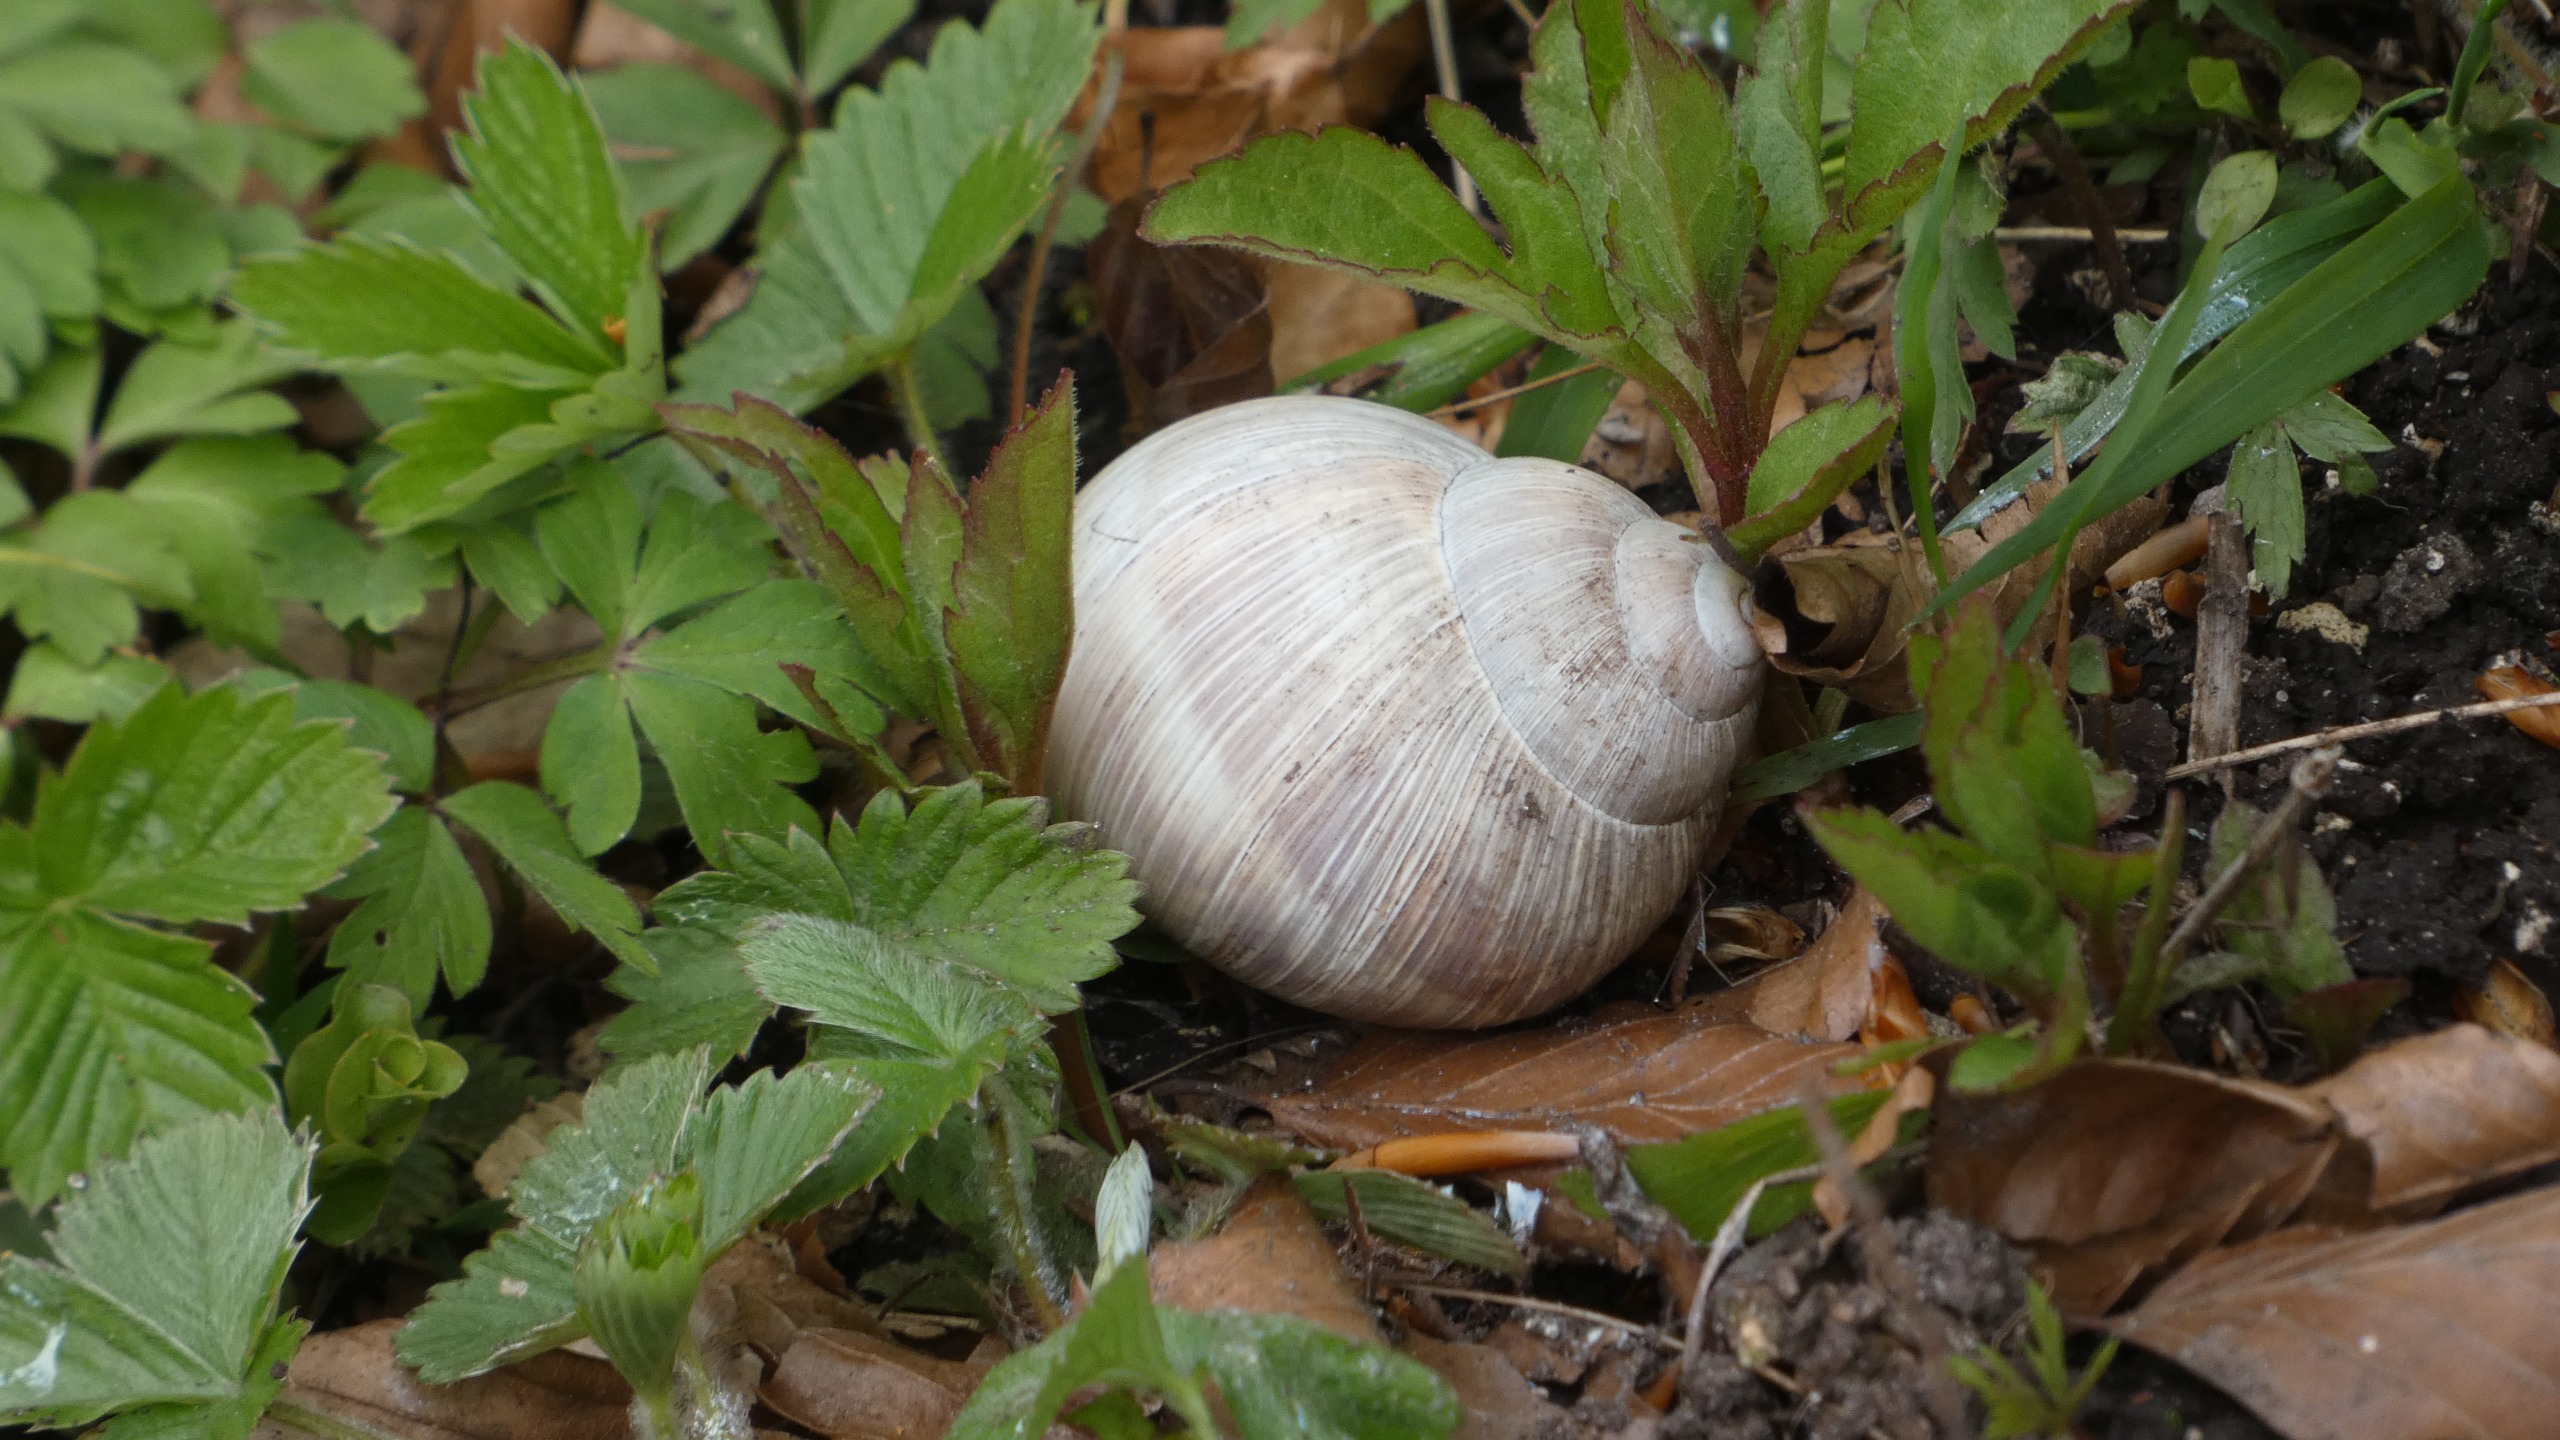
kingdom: Animalia
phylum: Mollusca
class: Gastropoda
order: Stylommatophora
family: Helicidae
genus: Helix
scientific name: Helix pomatia
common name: Vinbjergsnegl
